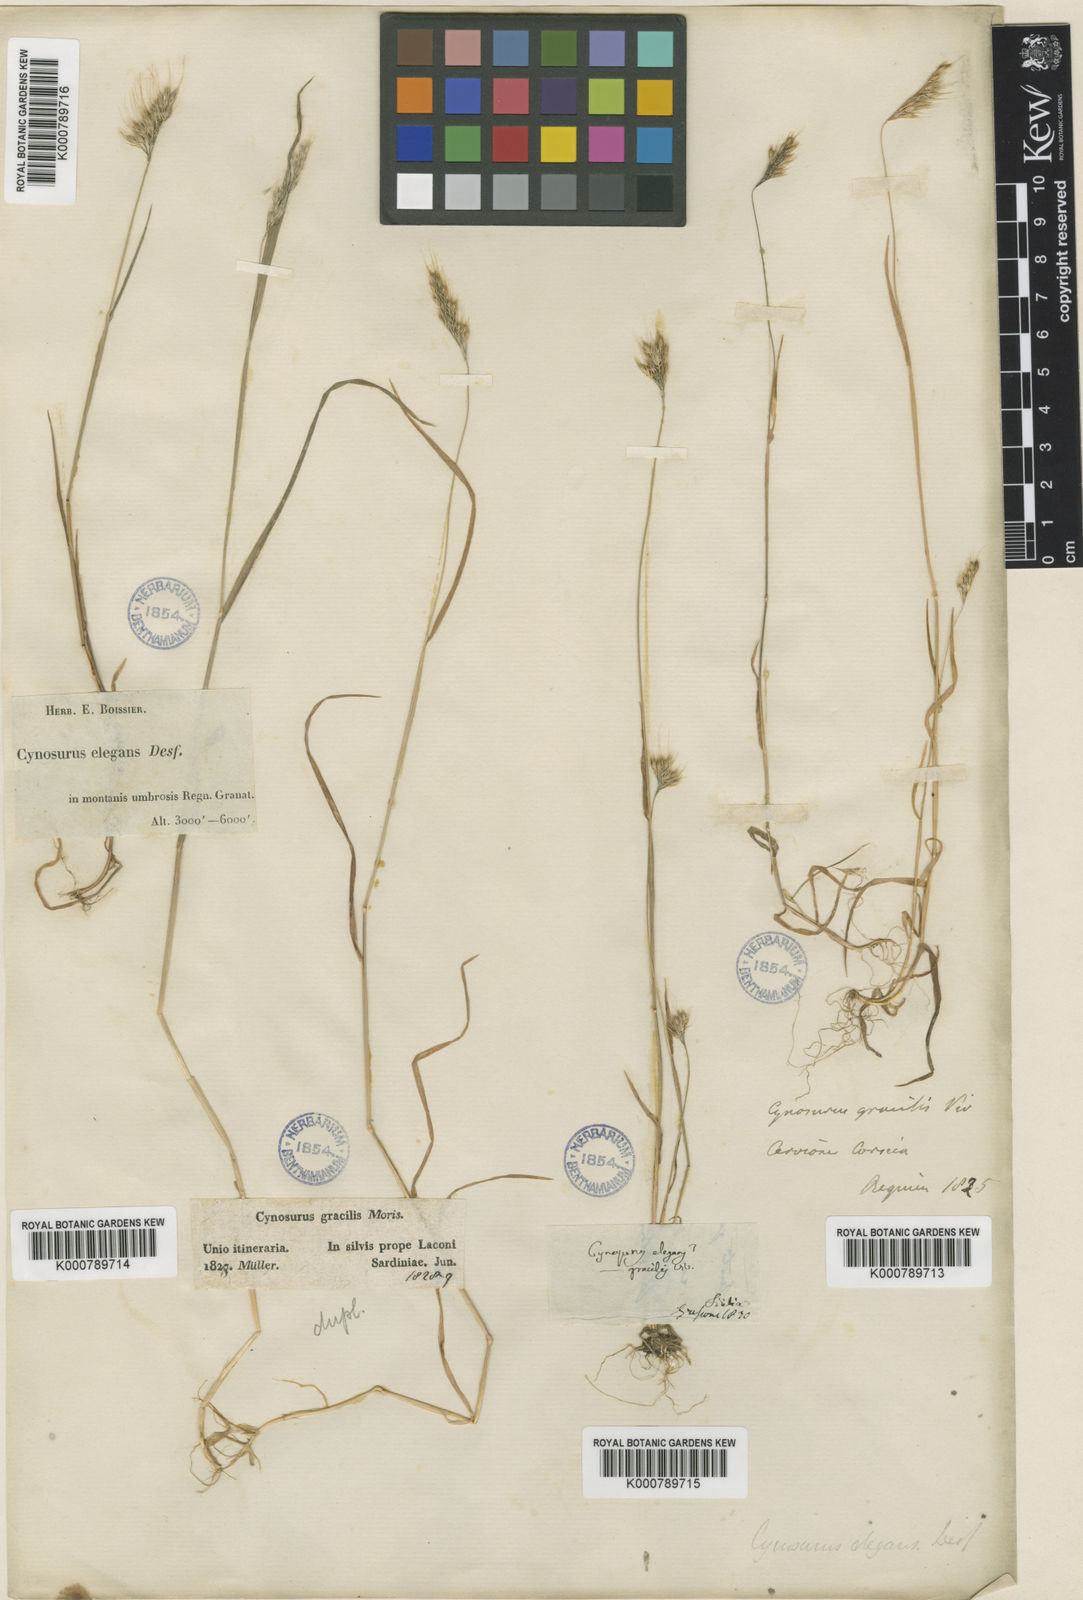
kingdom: Plantae
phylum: Tracheophyta
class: Liliopsida
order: Poales
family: Poaceae
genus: Cynosurus
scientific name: Cynosurus elegans
